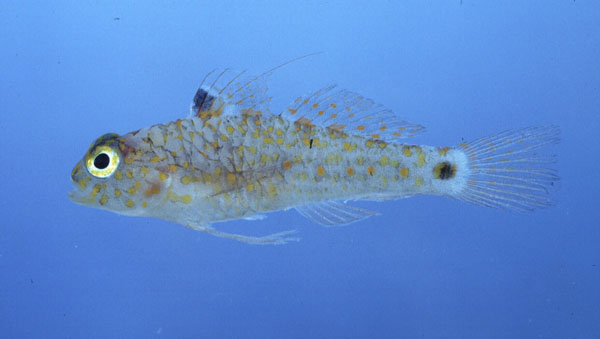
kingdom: Animalia
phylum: Chordata
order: Perciformes
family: Gobiidae
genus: Asterropteryx
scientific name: Asterropteryx bipunctata
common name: Orange-spotted goby
